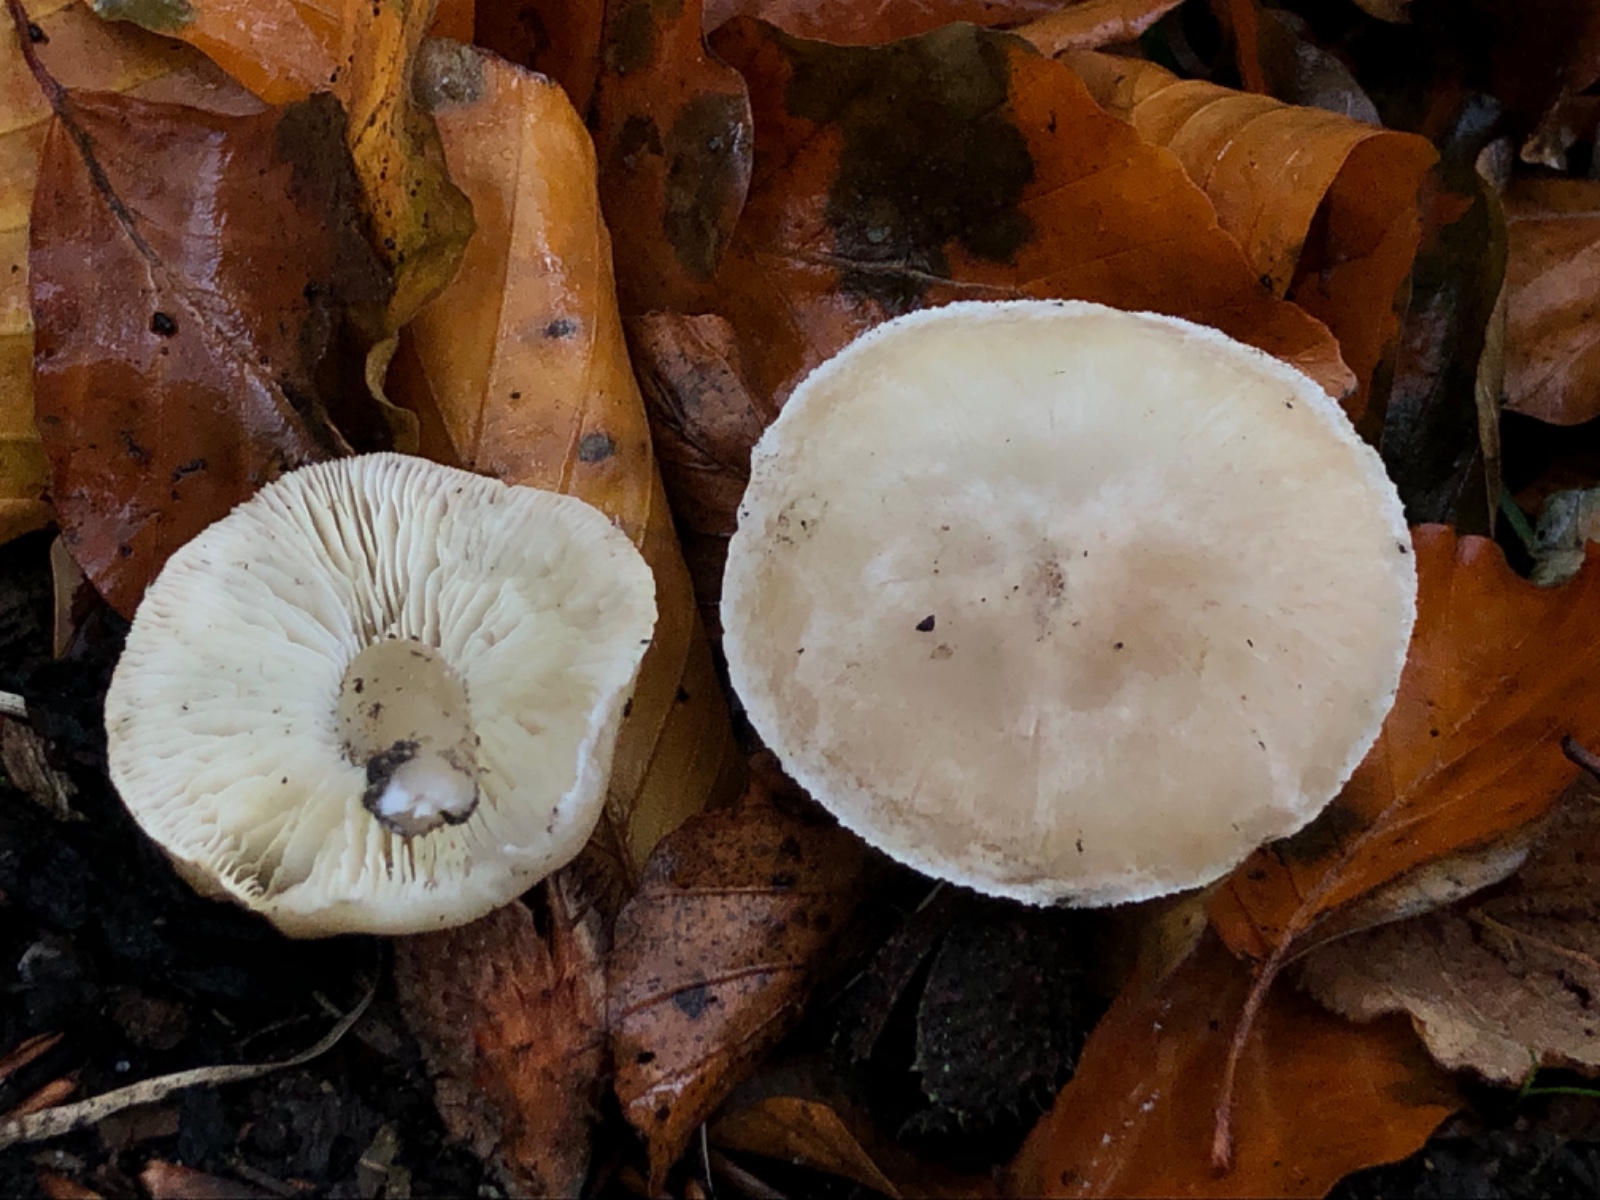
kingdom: Fungi
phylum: Basidiomycota
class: Agaricomycetes
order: Agaricales
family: Tricholomataceae
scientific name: Tricholomataceae
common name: ridderhatfamilien
